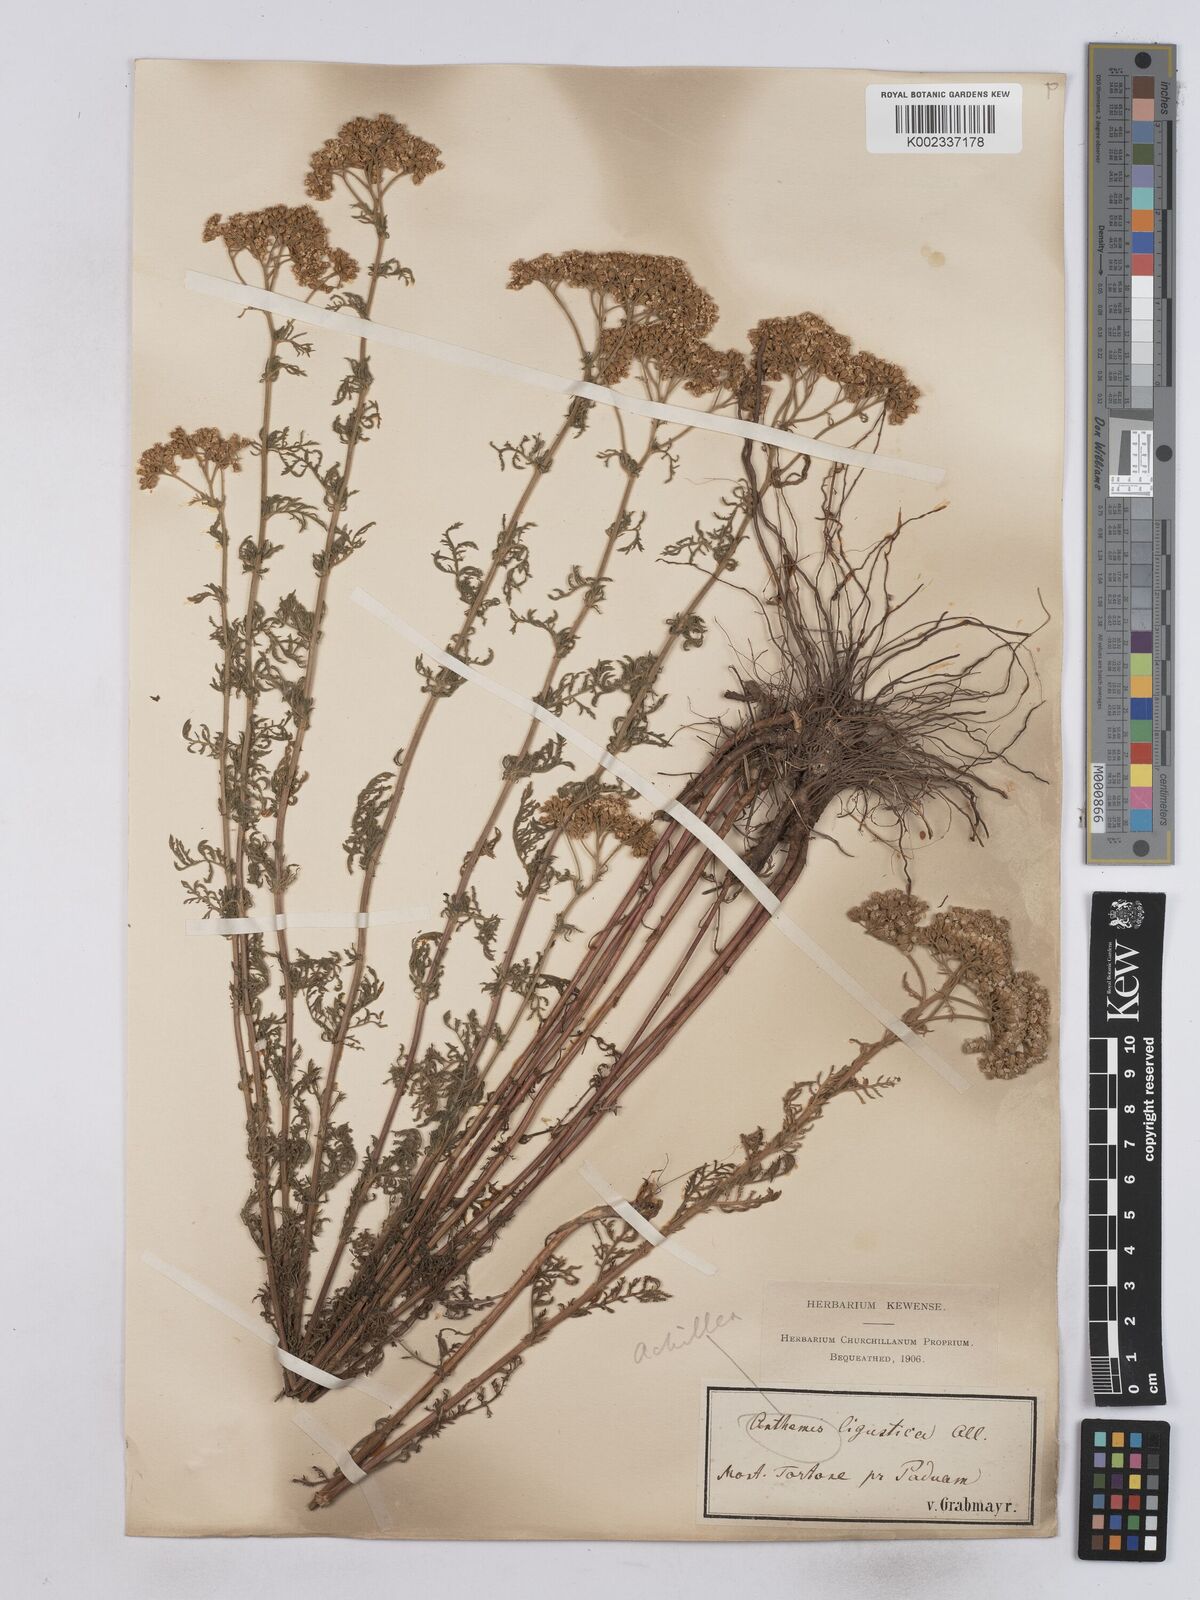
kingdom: Plantae
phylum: Tracheophyta
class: Magnoliopsida
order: Asterales
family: Asteraceae
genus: Achillea
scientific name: Achillea ligustica
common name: Southern yarrow
